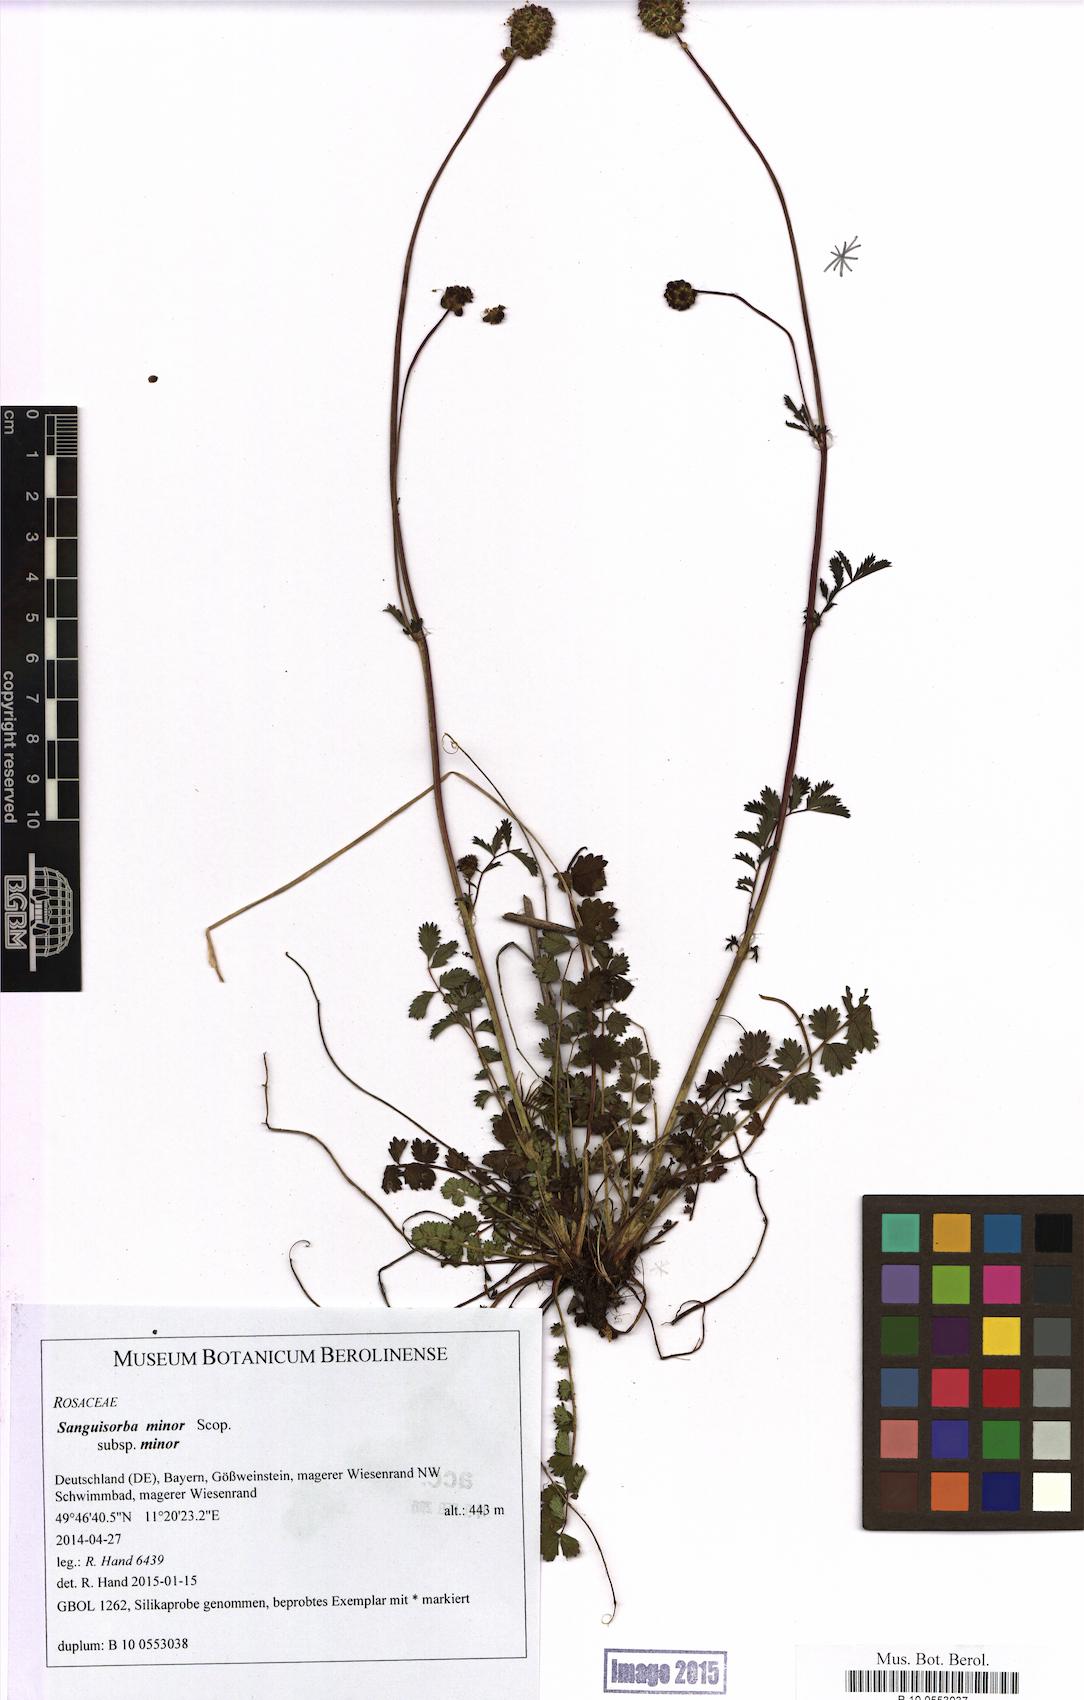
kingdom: Plantae
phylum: Tracheophyta
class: Magnoliopsida
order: Rosales
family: Rosaceae
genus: Poterium
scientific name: Poterium sanguisorba
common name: Salad burnet
